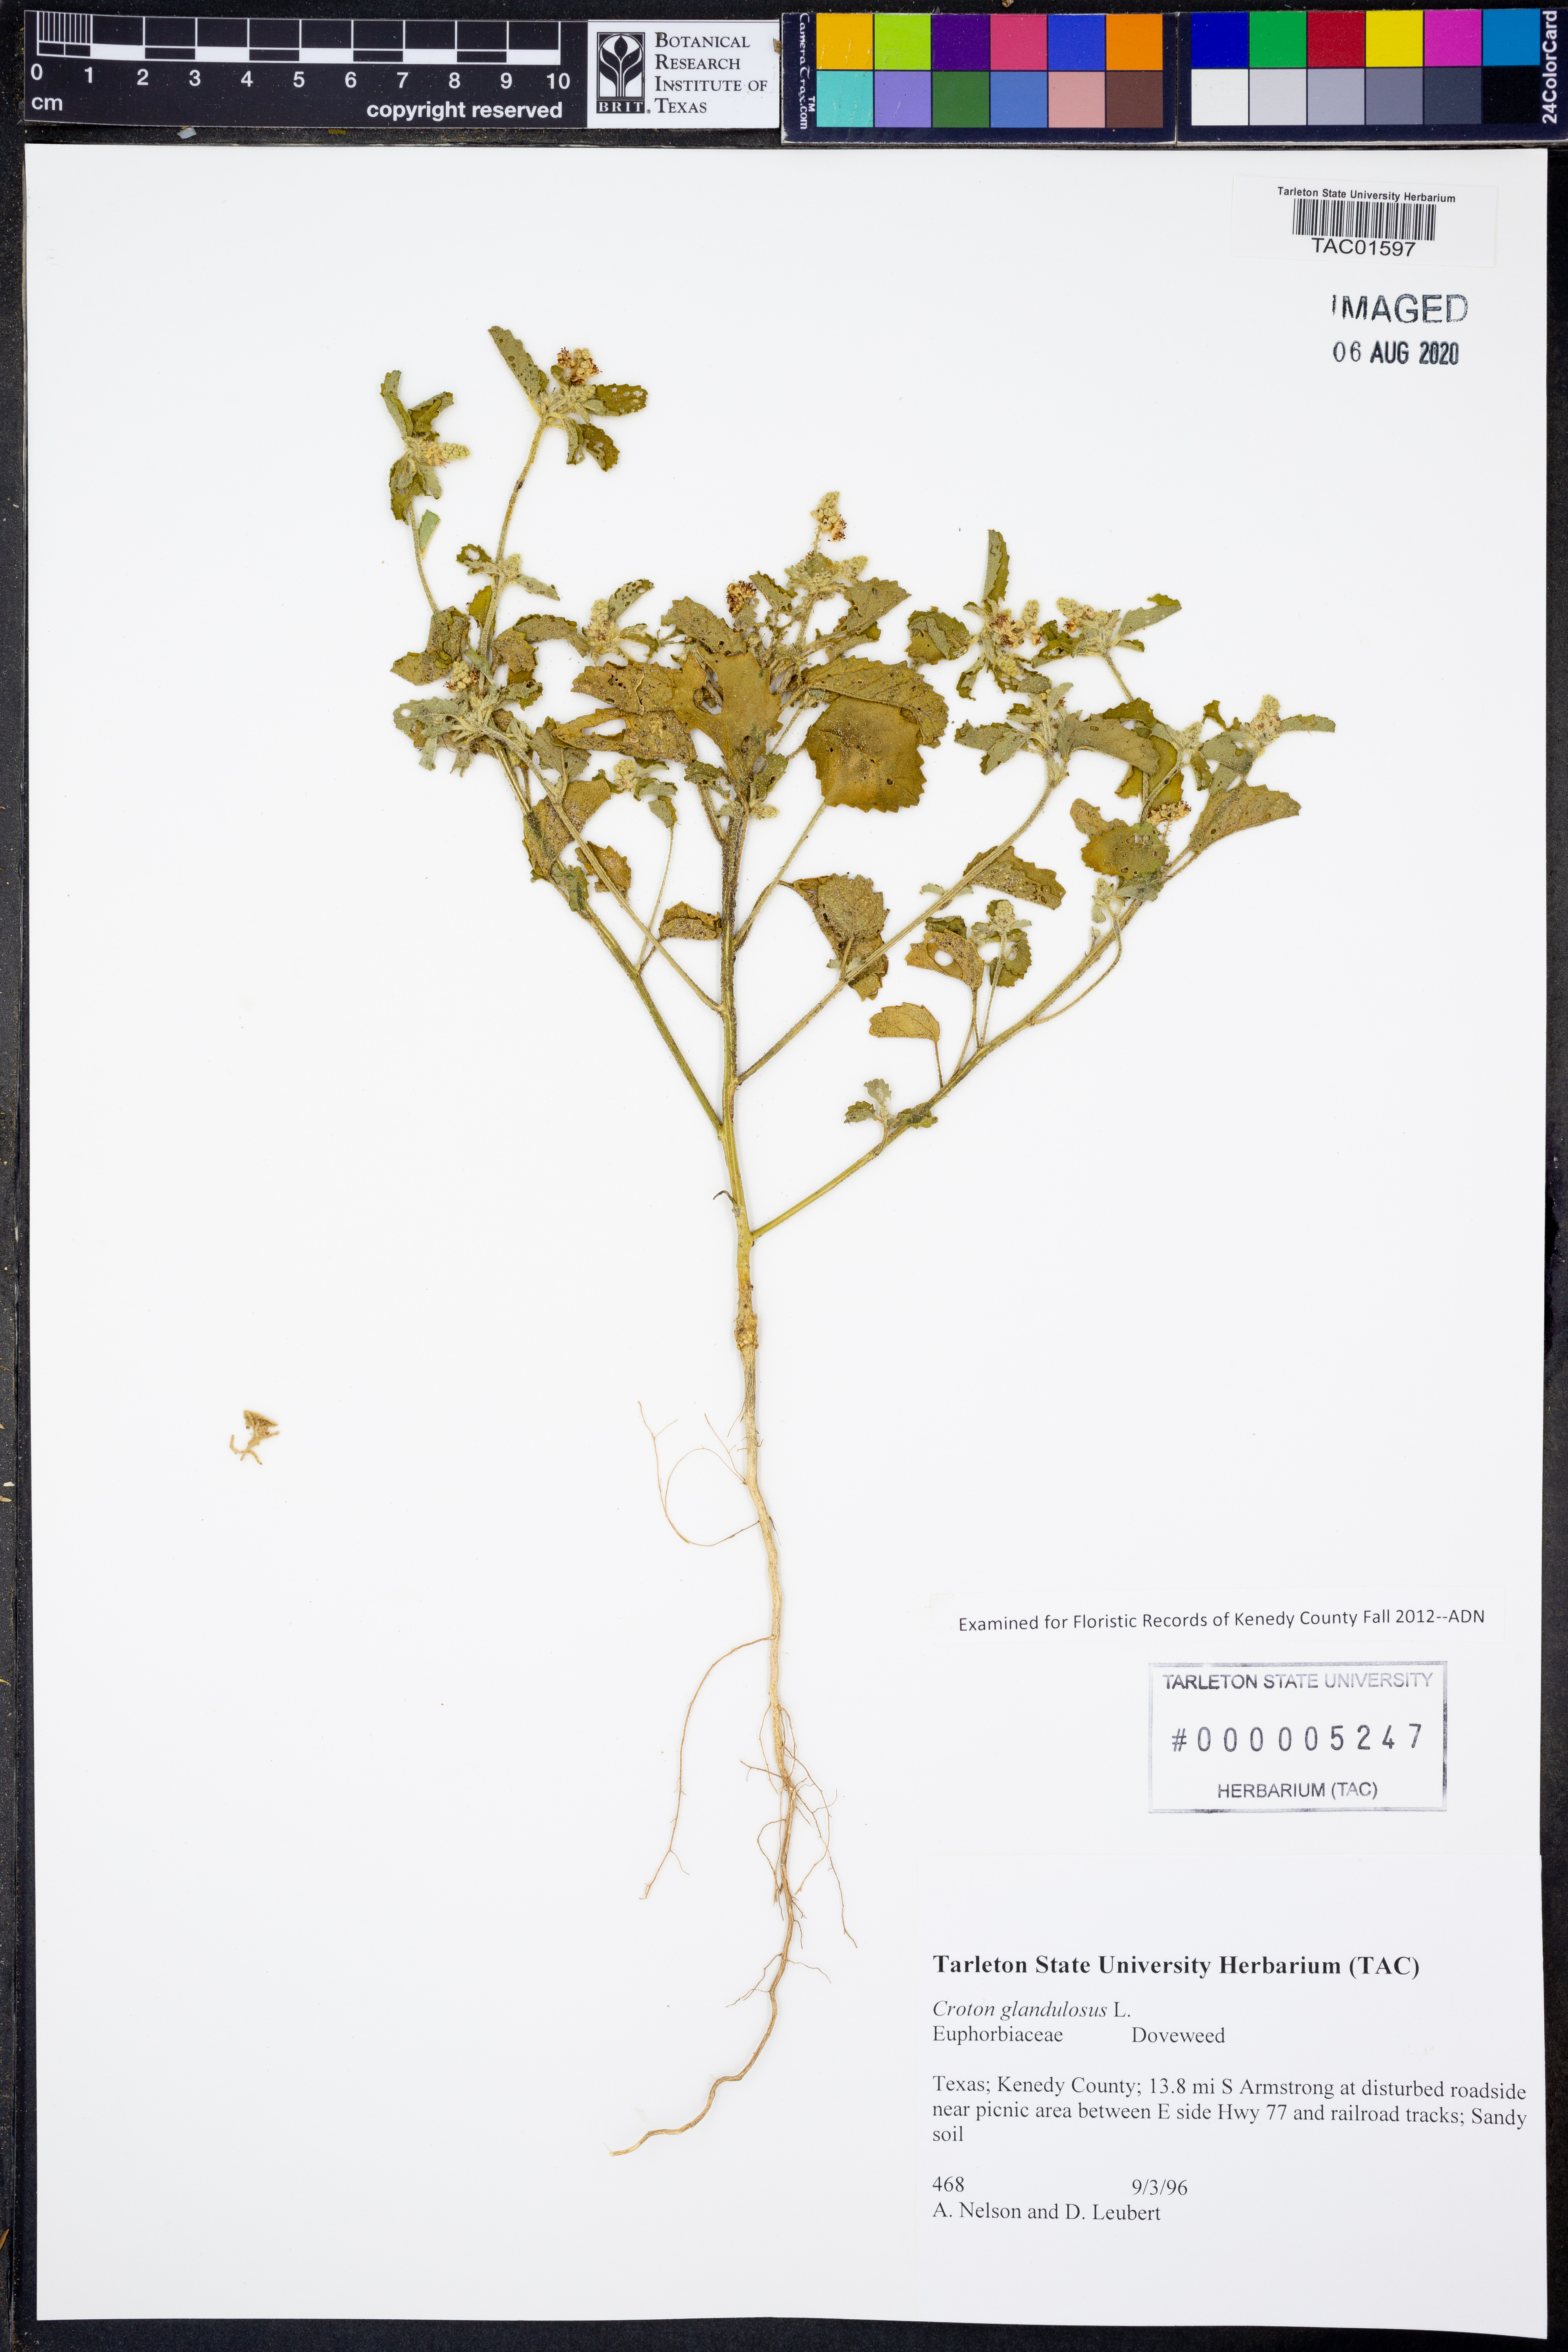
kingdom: Plantae
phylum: Tracheophyta
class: Magnoliopsida
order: Malpighiales
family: Euphorbiaceae
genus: Croton
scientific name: Croton glandulosus
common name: Tropic croton
